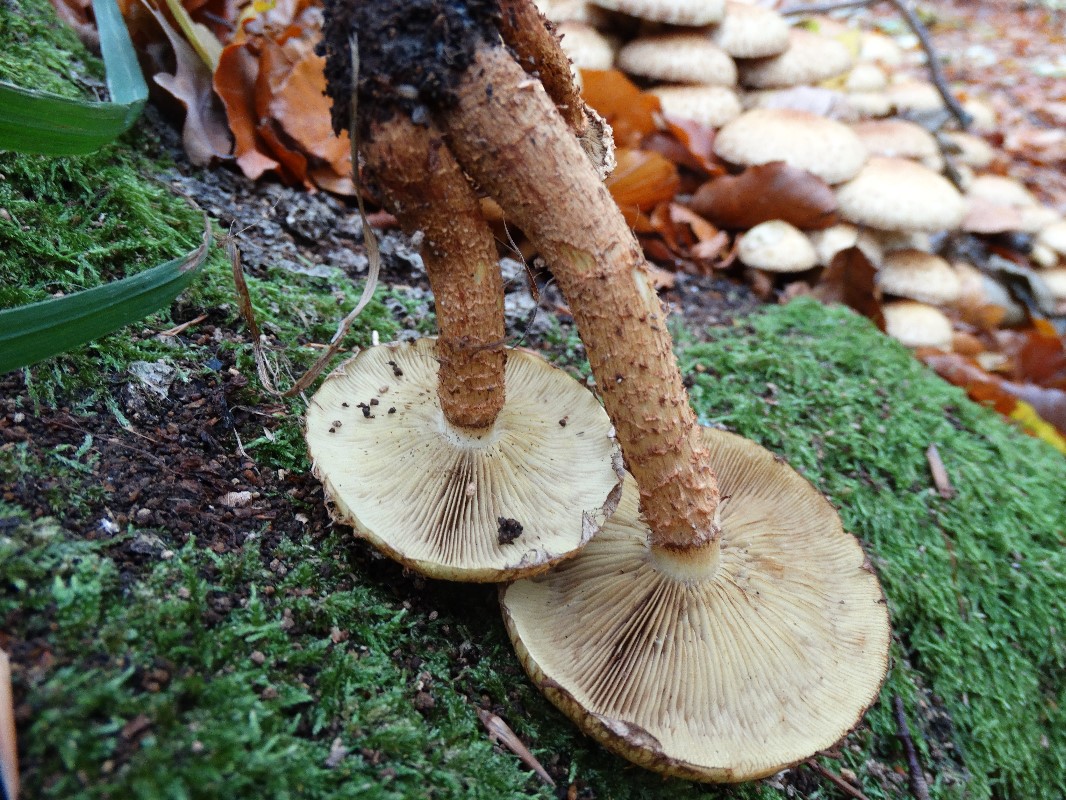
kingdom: Fungi
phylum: Basidiomycota
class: Agaricomycetes
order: Agaricales
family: Strophariaceae
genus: Pholiota
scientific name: Pholiota squarrosa
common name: krumskællet skælhat
